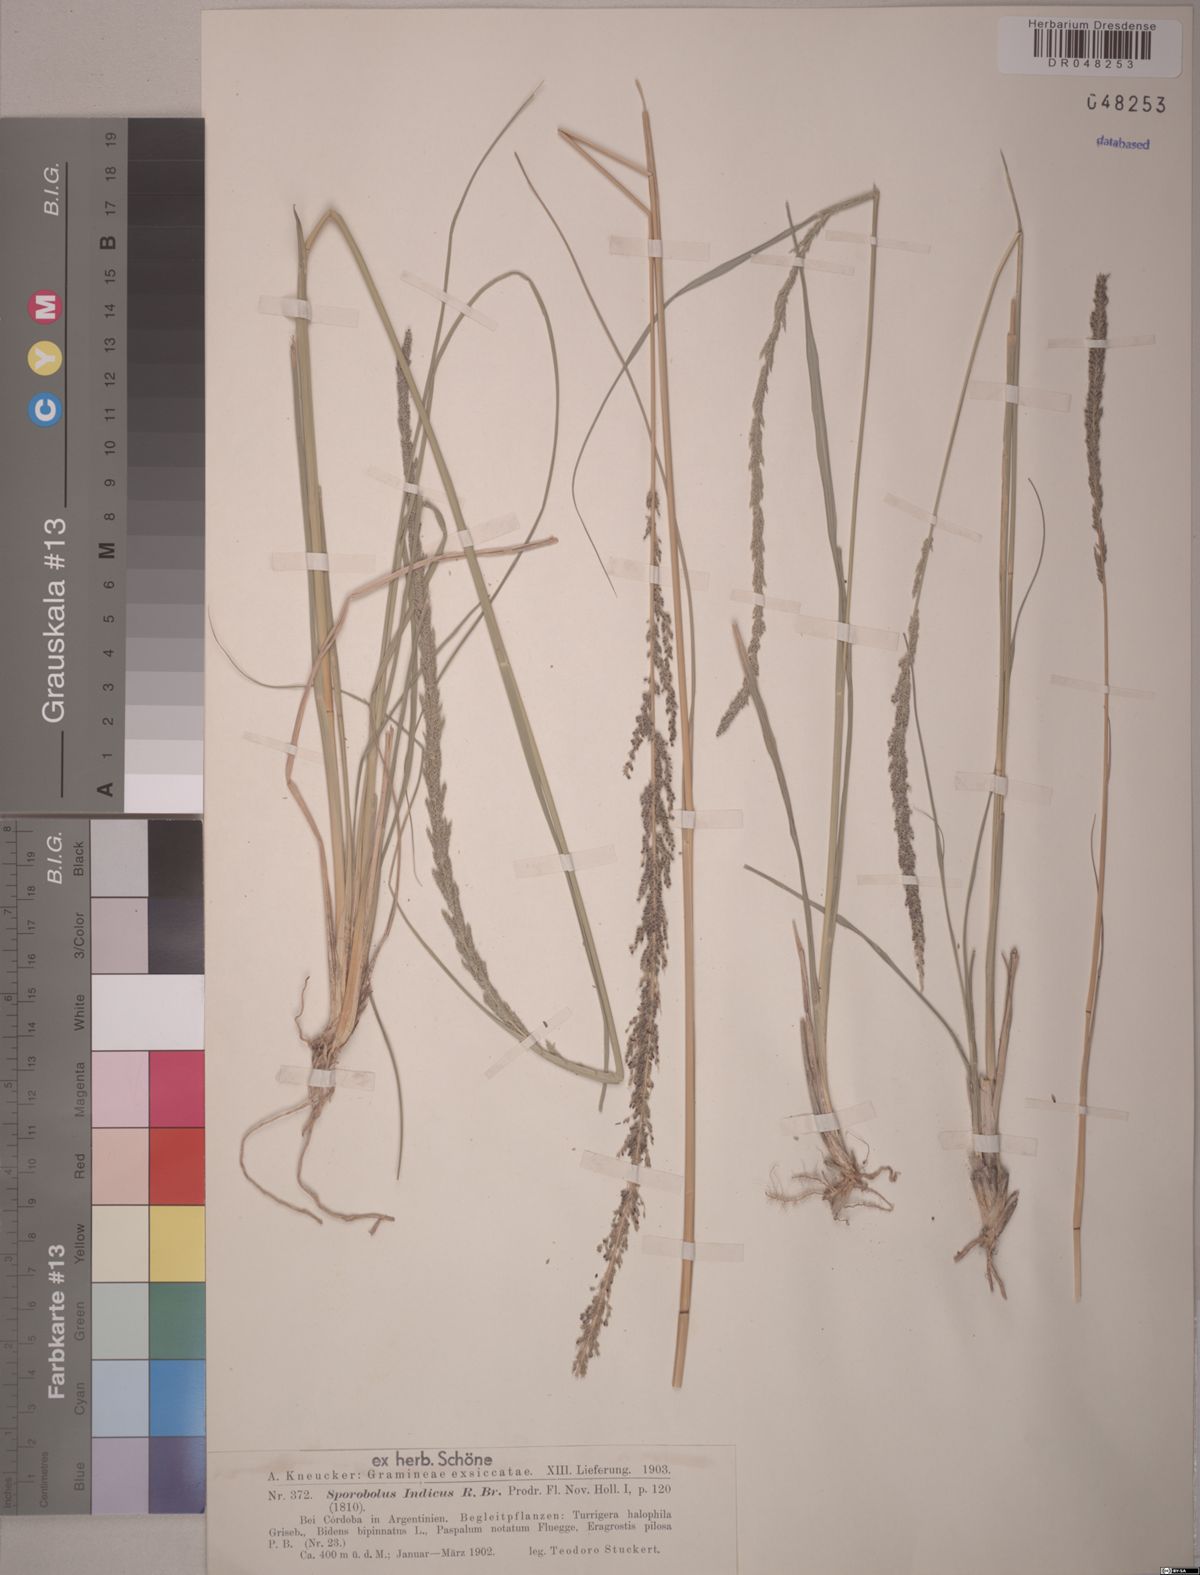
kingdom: Plantae
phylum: Tracheophyta
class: Liliopsida
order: Poales
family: Poaceae
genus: Sporobolus
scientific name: Sporobolus indicus
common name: Smut grass
